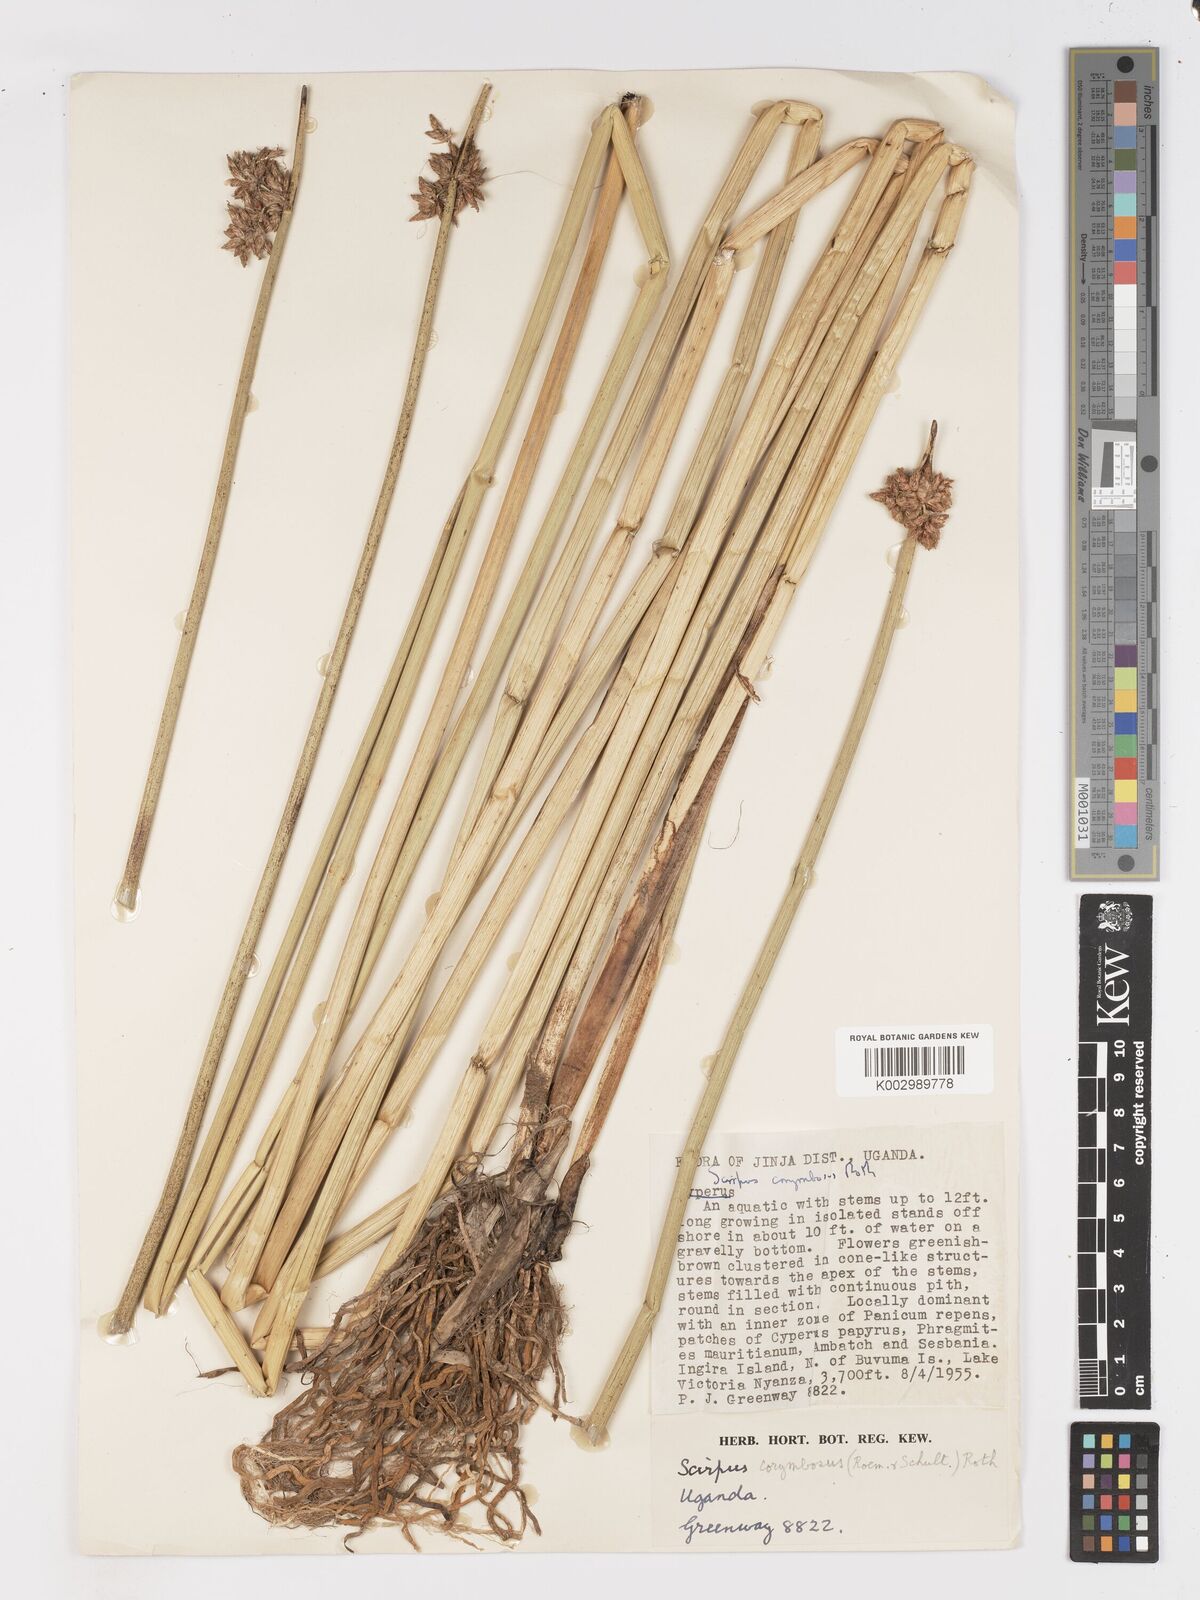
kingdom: Plantae
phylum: Tracheophyta
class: Liliopsida
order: Poales
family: Cyperaceae
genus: Schoenoplectiella
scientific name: Schoenoplectiella brachyceras
